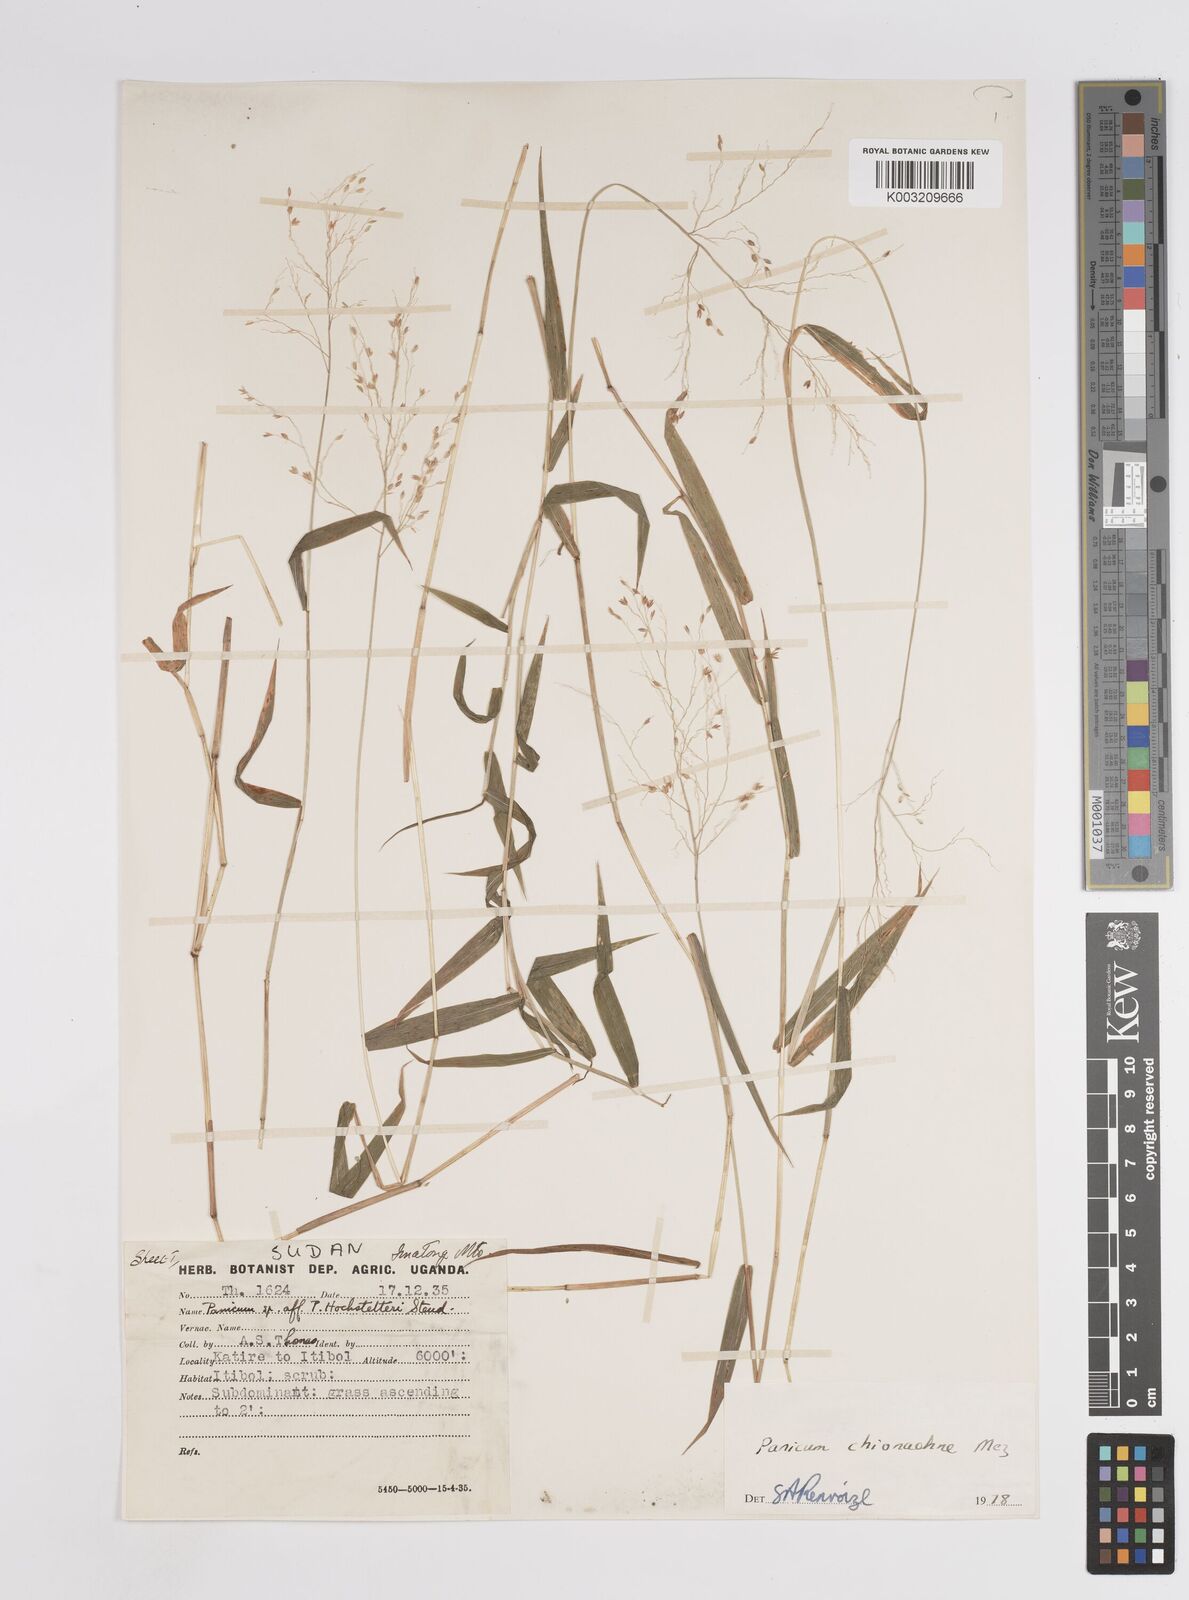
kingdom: Plantae
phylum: Tracheophyta
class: Liliopsida
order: Poales
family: Poaceae
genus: Panicum
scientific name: Panicum chionachne
